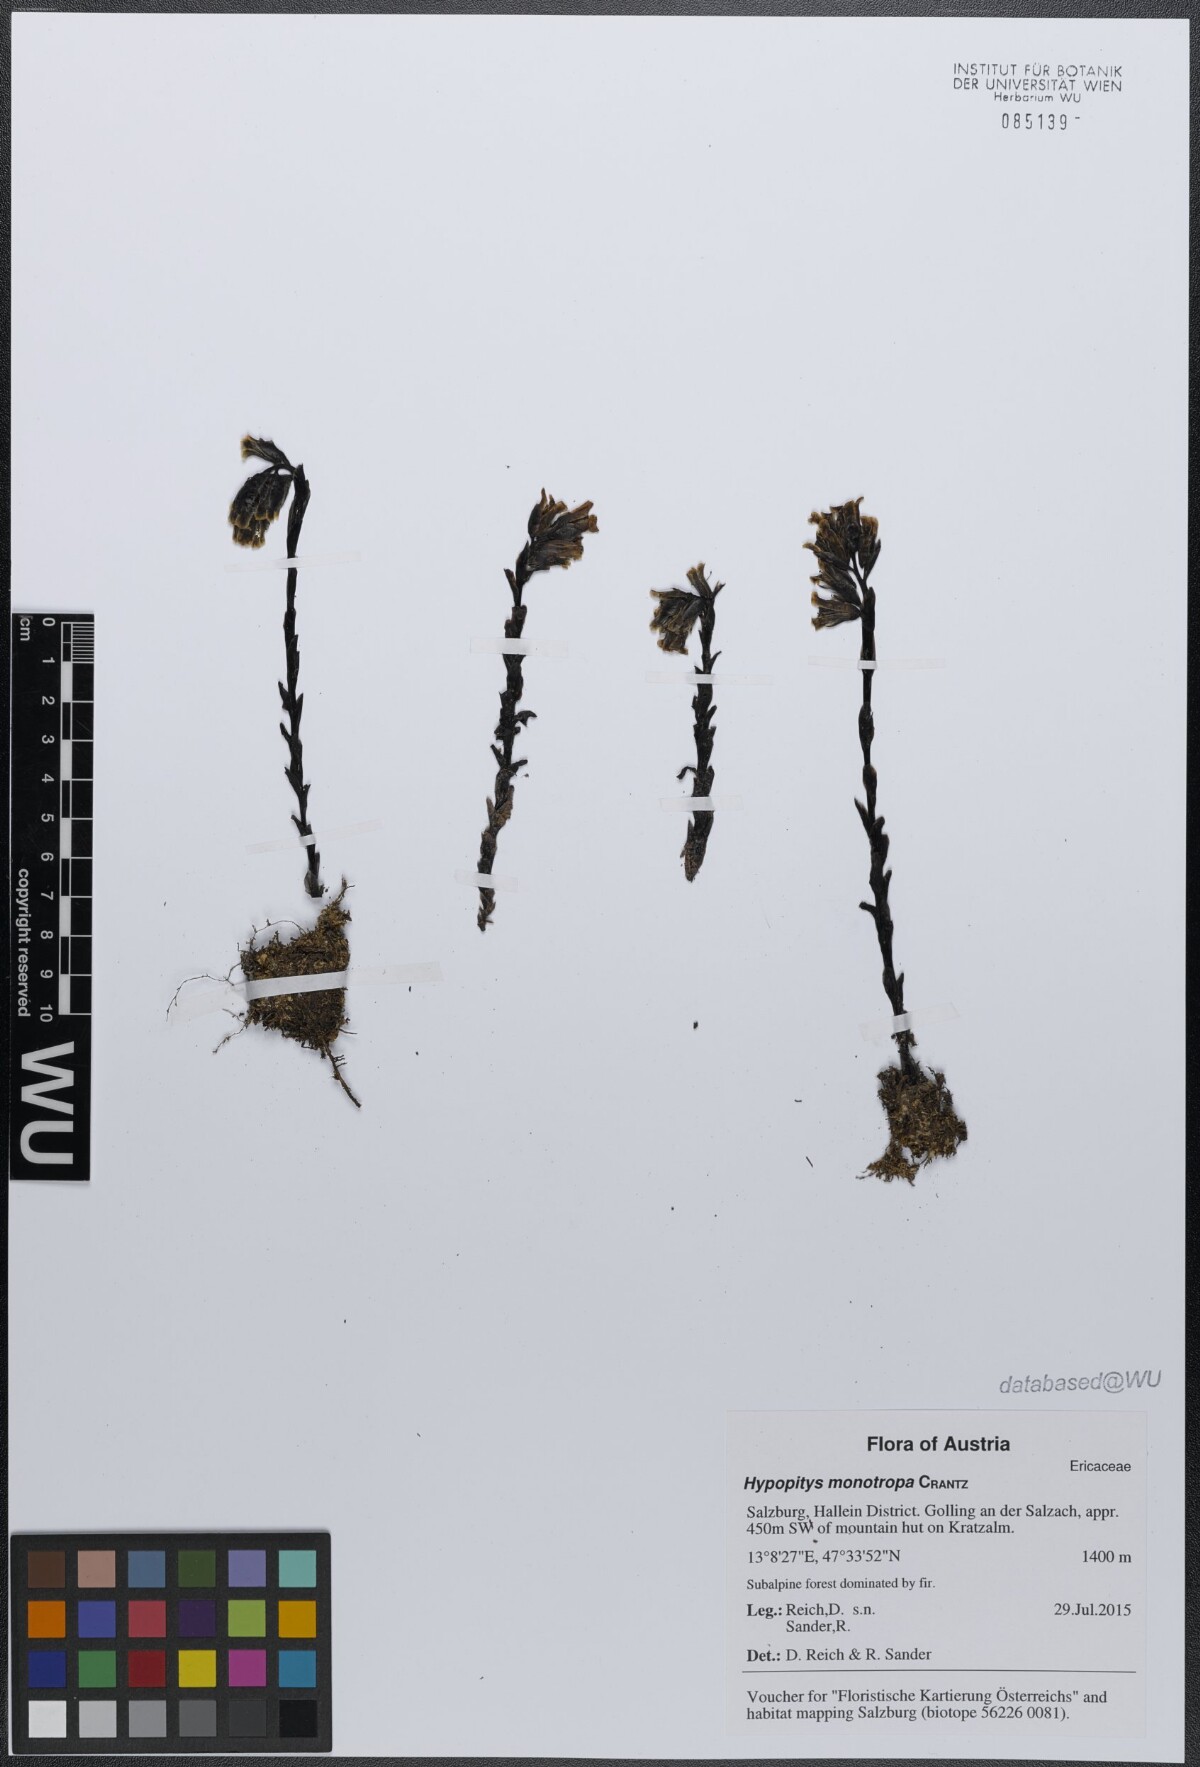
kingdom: Plantae
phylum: Tracheophyta
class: Magnoliopsida
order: Ericales
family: Ericaceae
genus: Hypopitys
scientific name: Hypopitys monotropa
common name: Yellow bird's-nest
